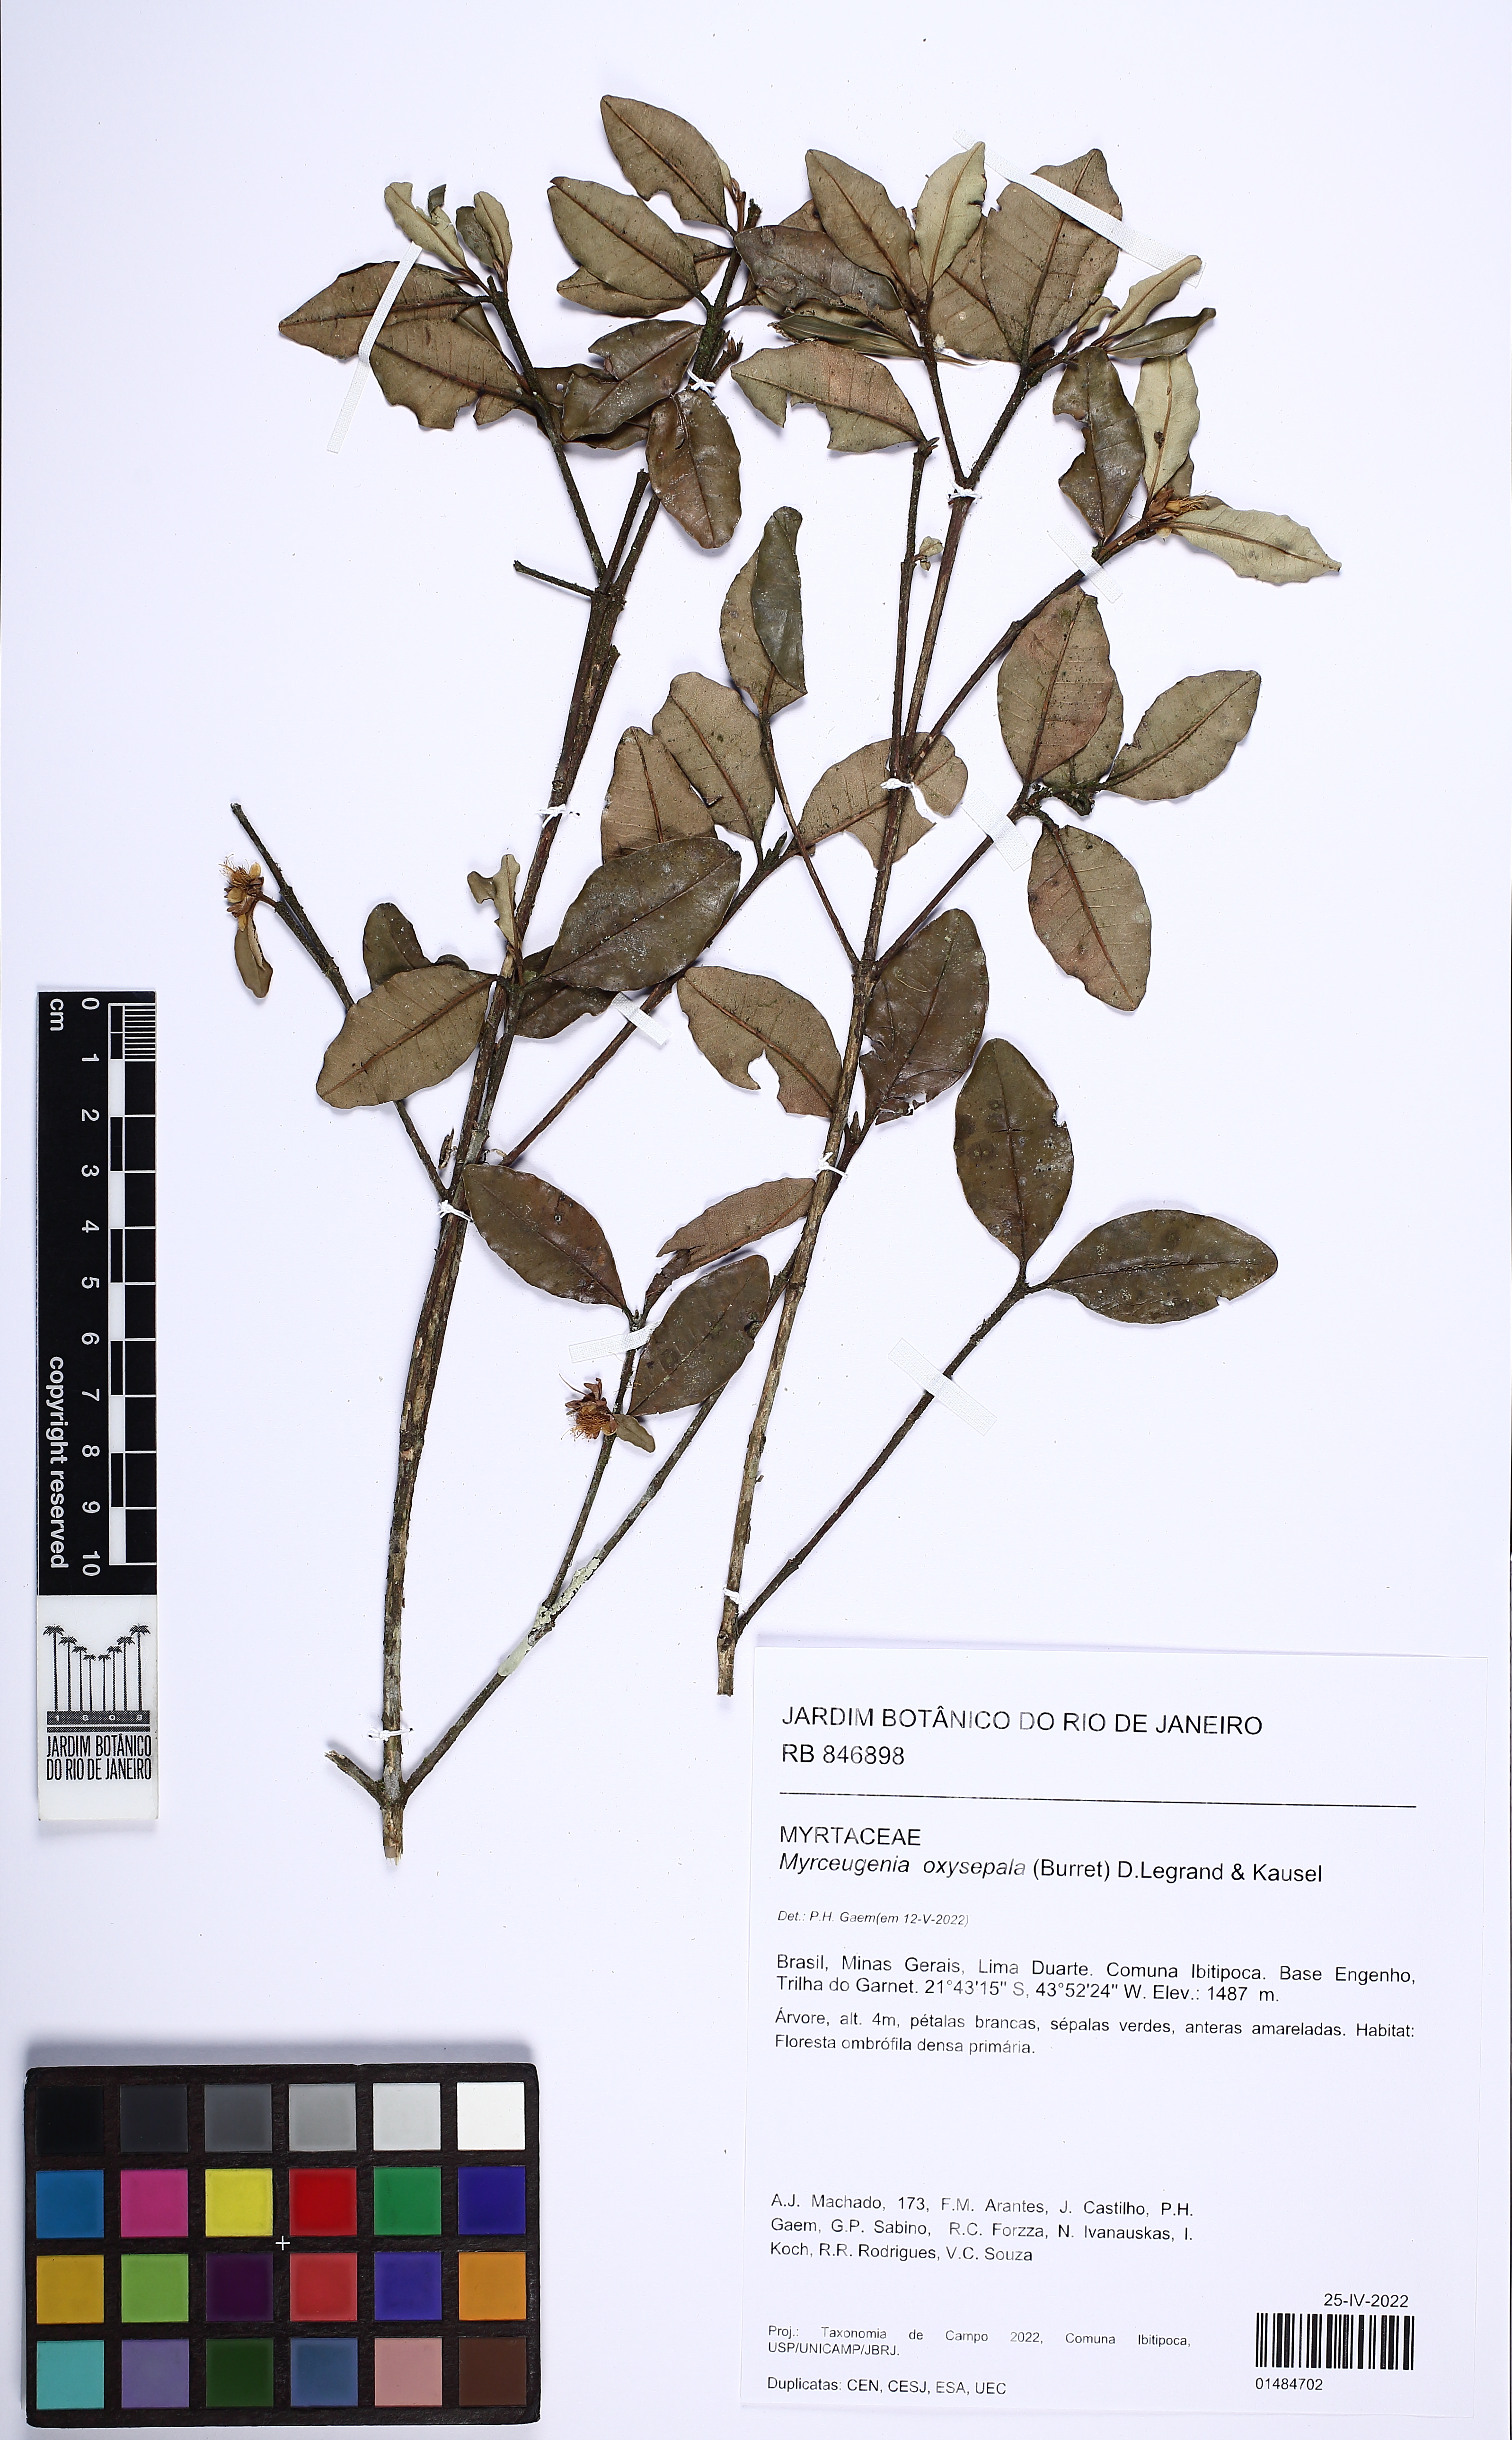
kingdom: Plantae
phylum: Tracheophyta
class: Magnoliopsida
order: Myrtales
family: Myrtaceae
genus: Myrceugenia
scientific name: Myrceugenia oxysepala
